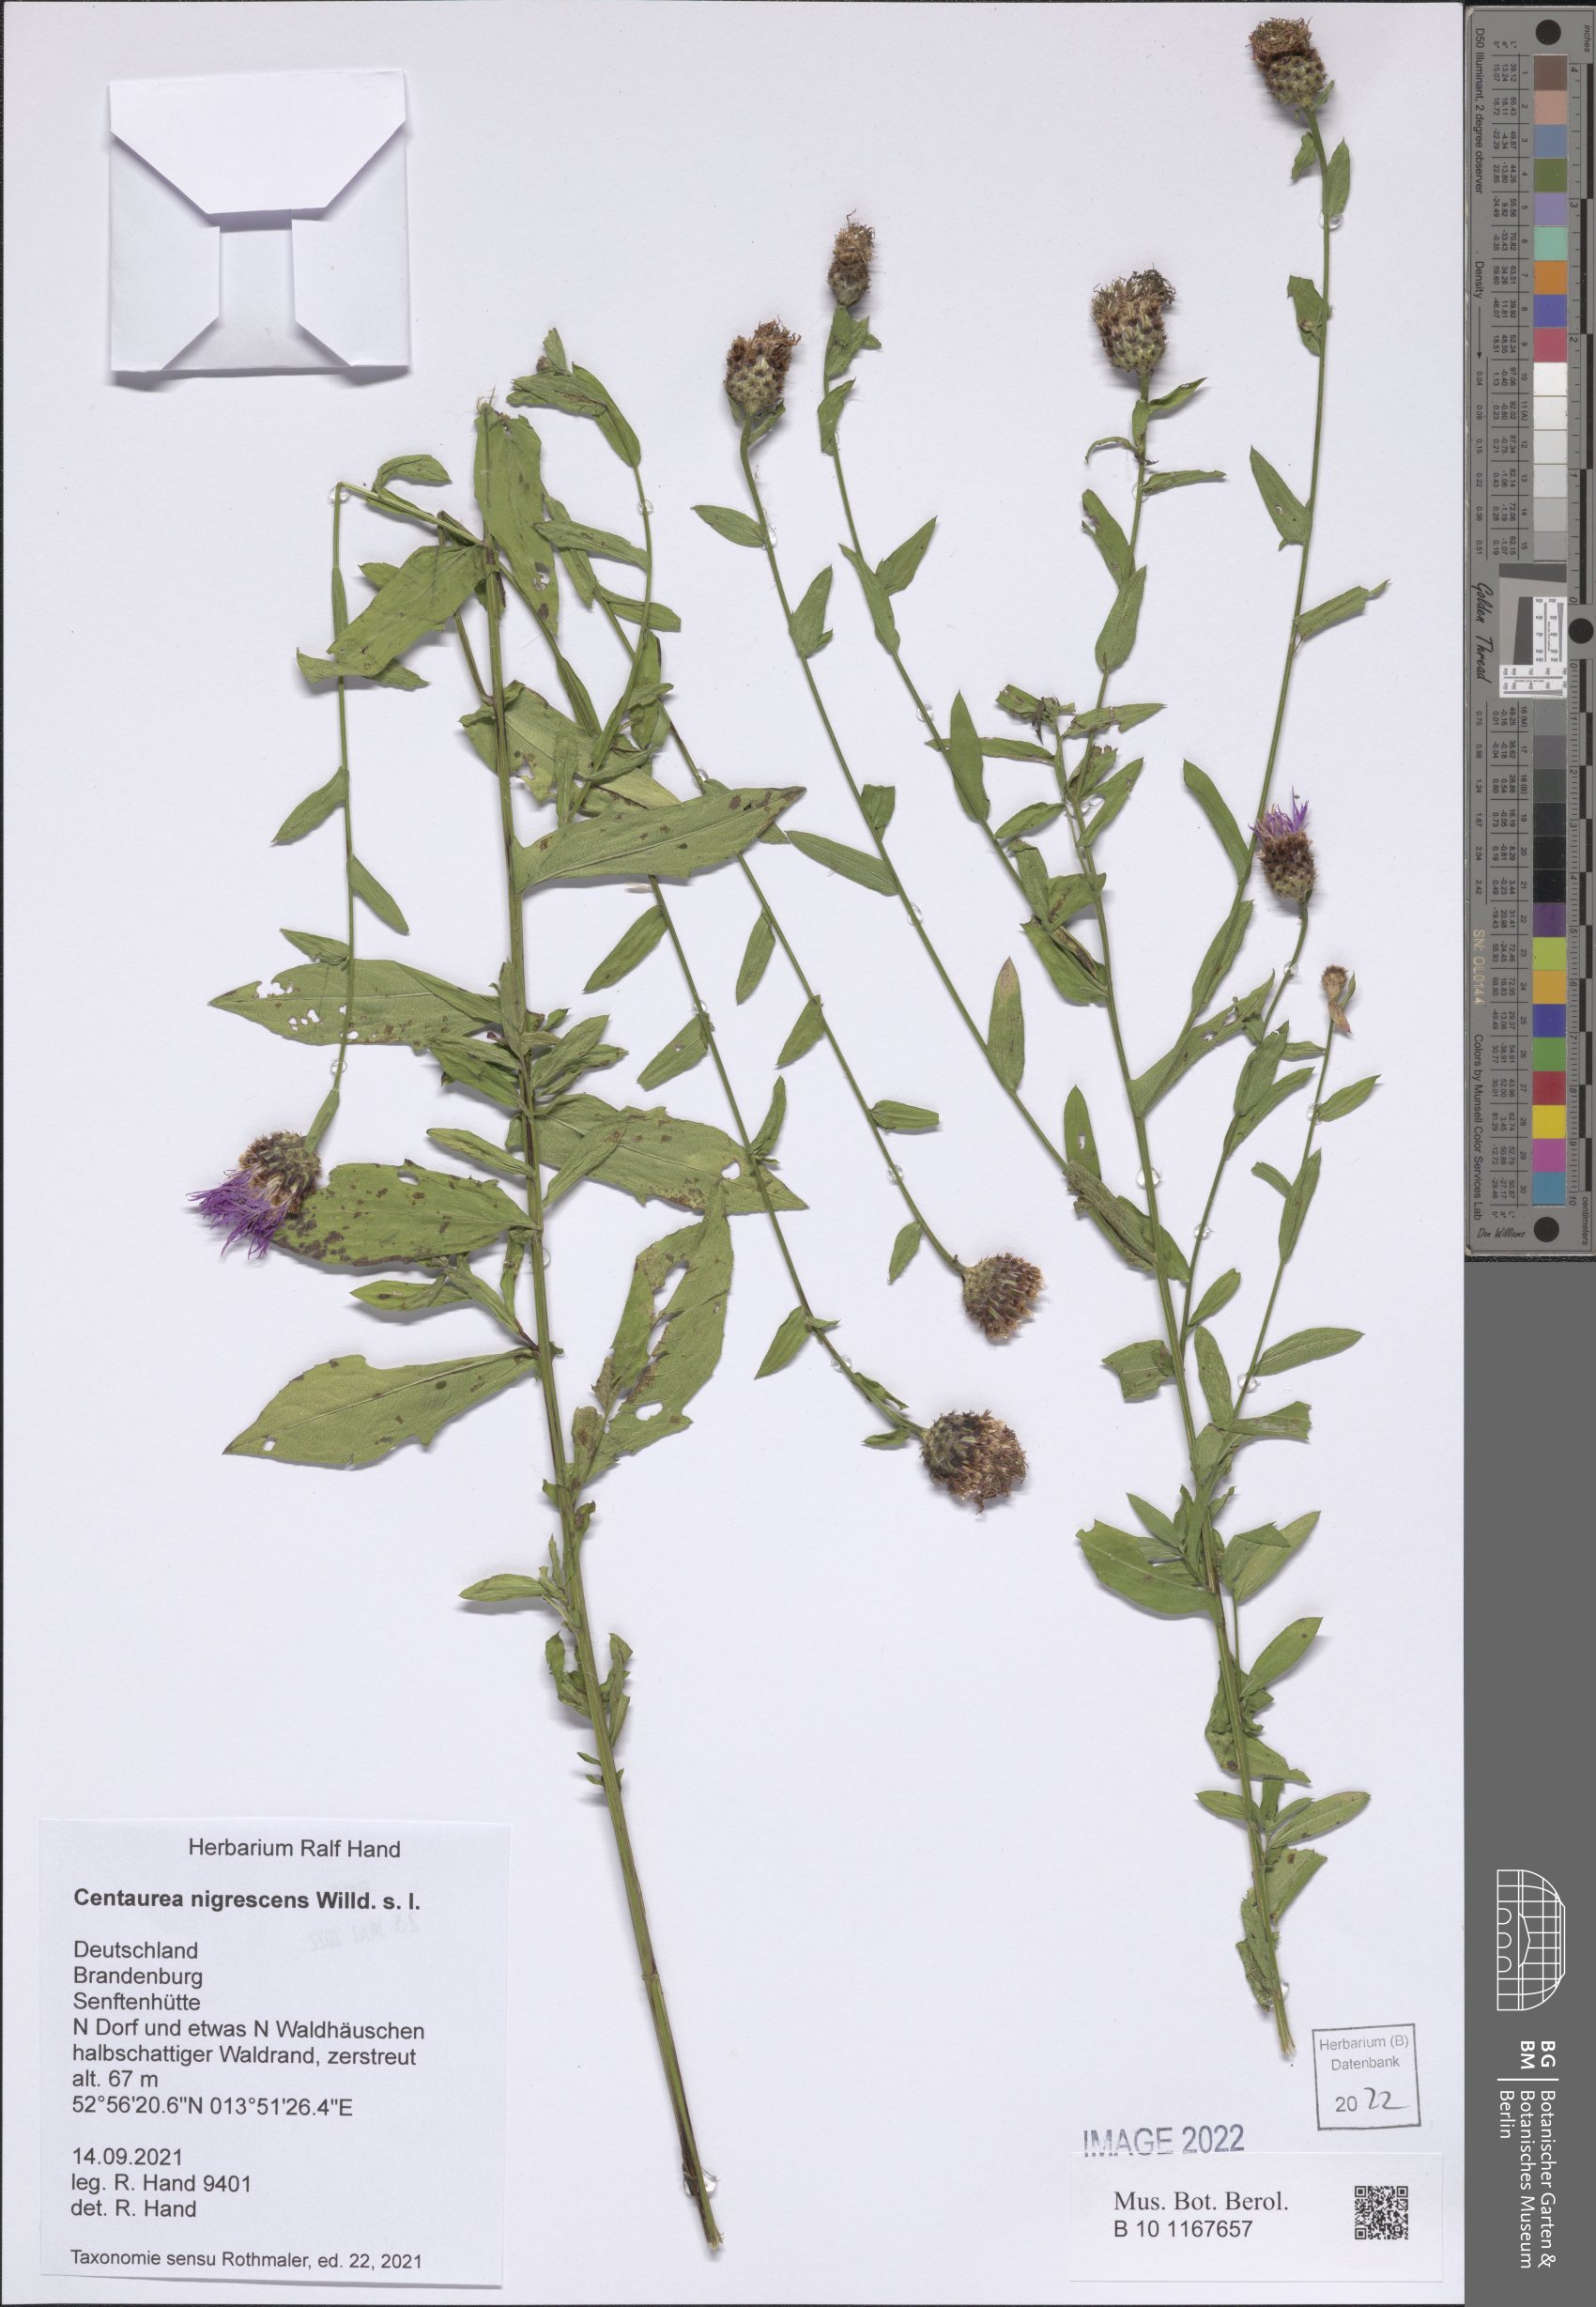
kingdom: Plantae
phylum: Tracheophyta
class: Magnoliopsida
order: Asterales
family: Asteraceae
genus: Centaurea
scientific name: Centaurea nigrescens
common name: Tyrol knapweed
